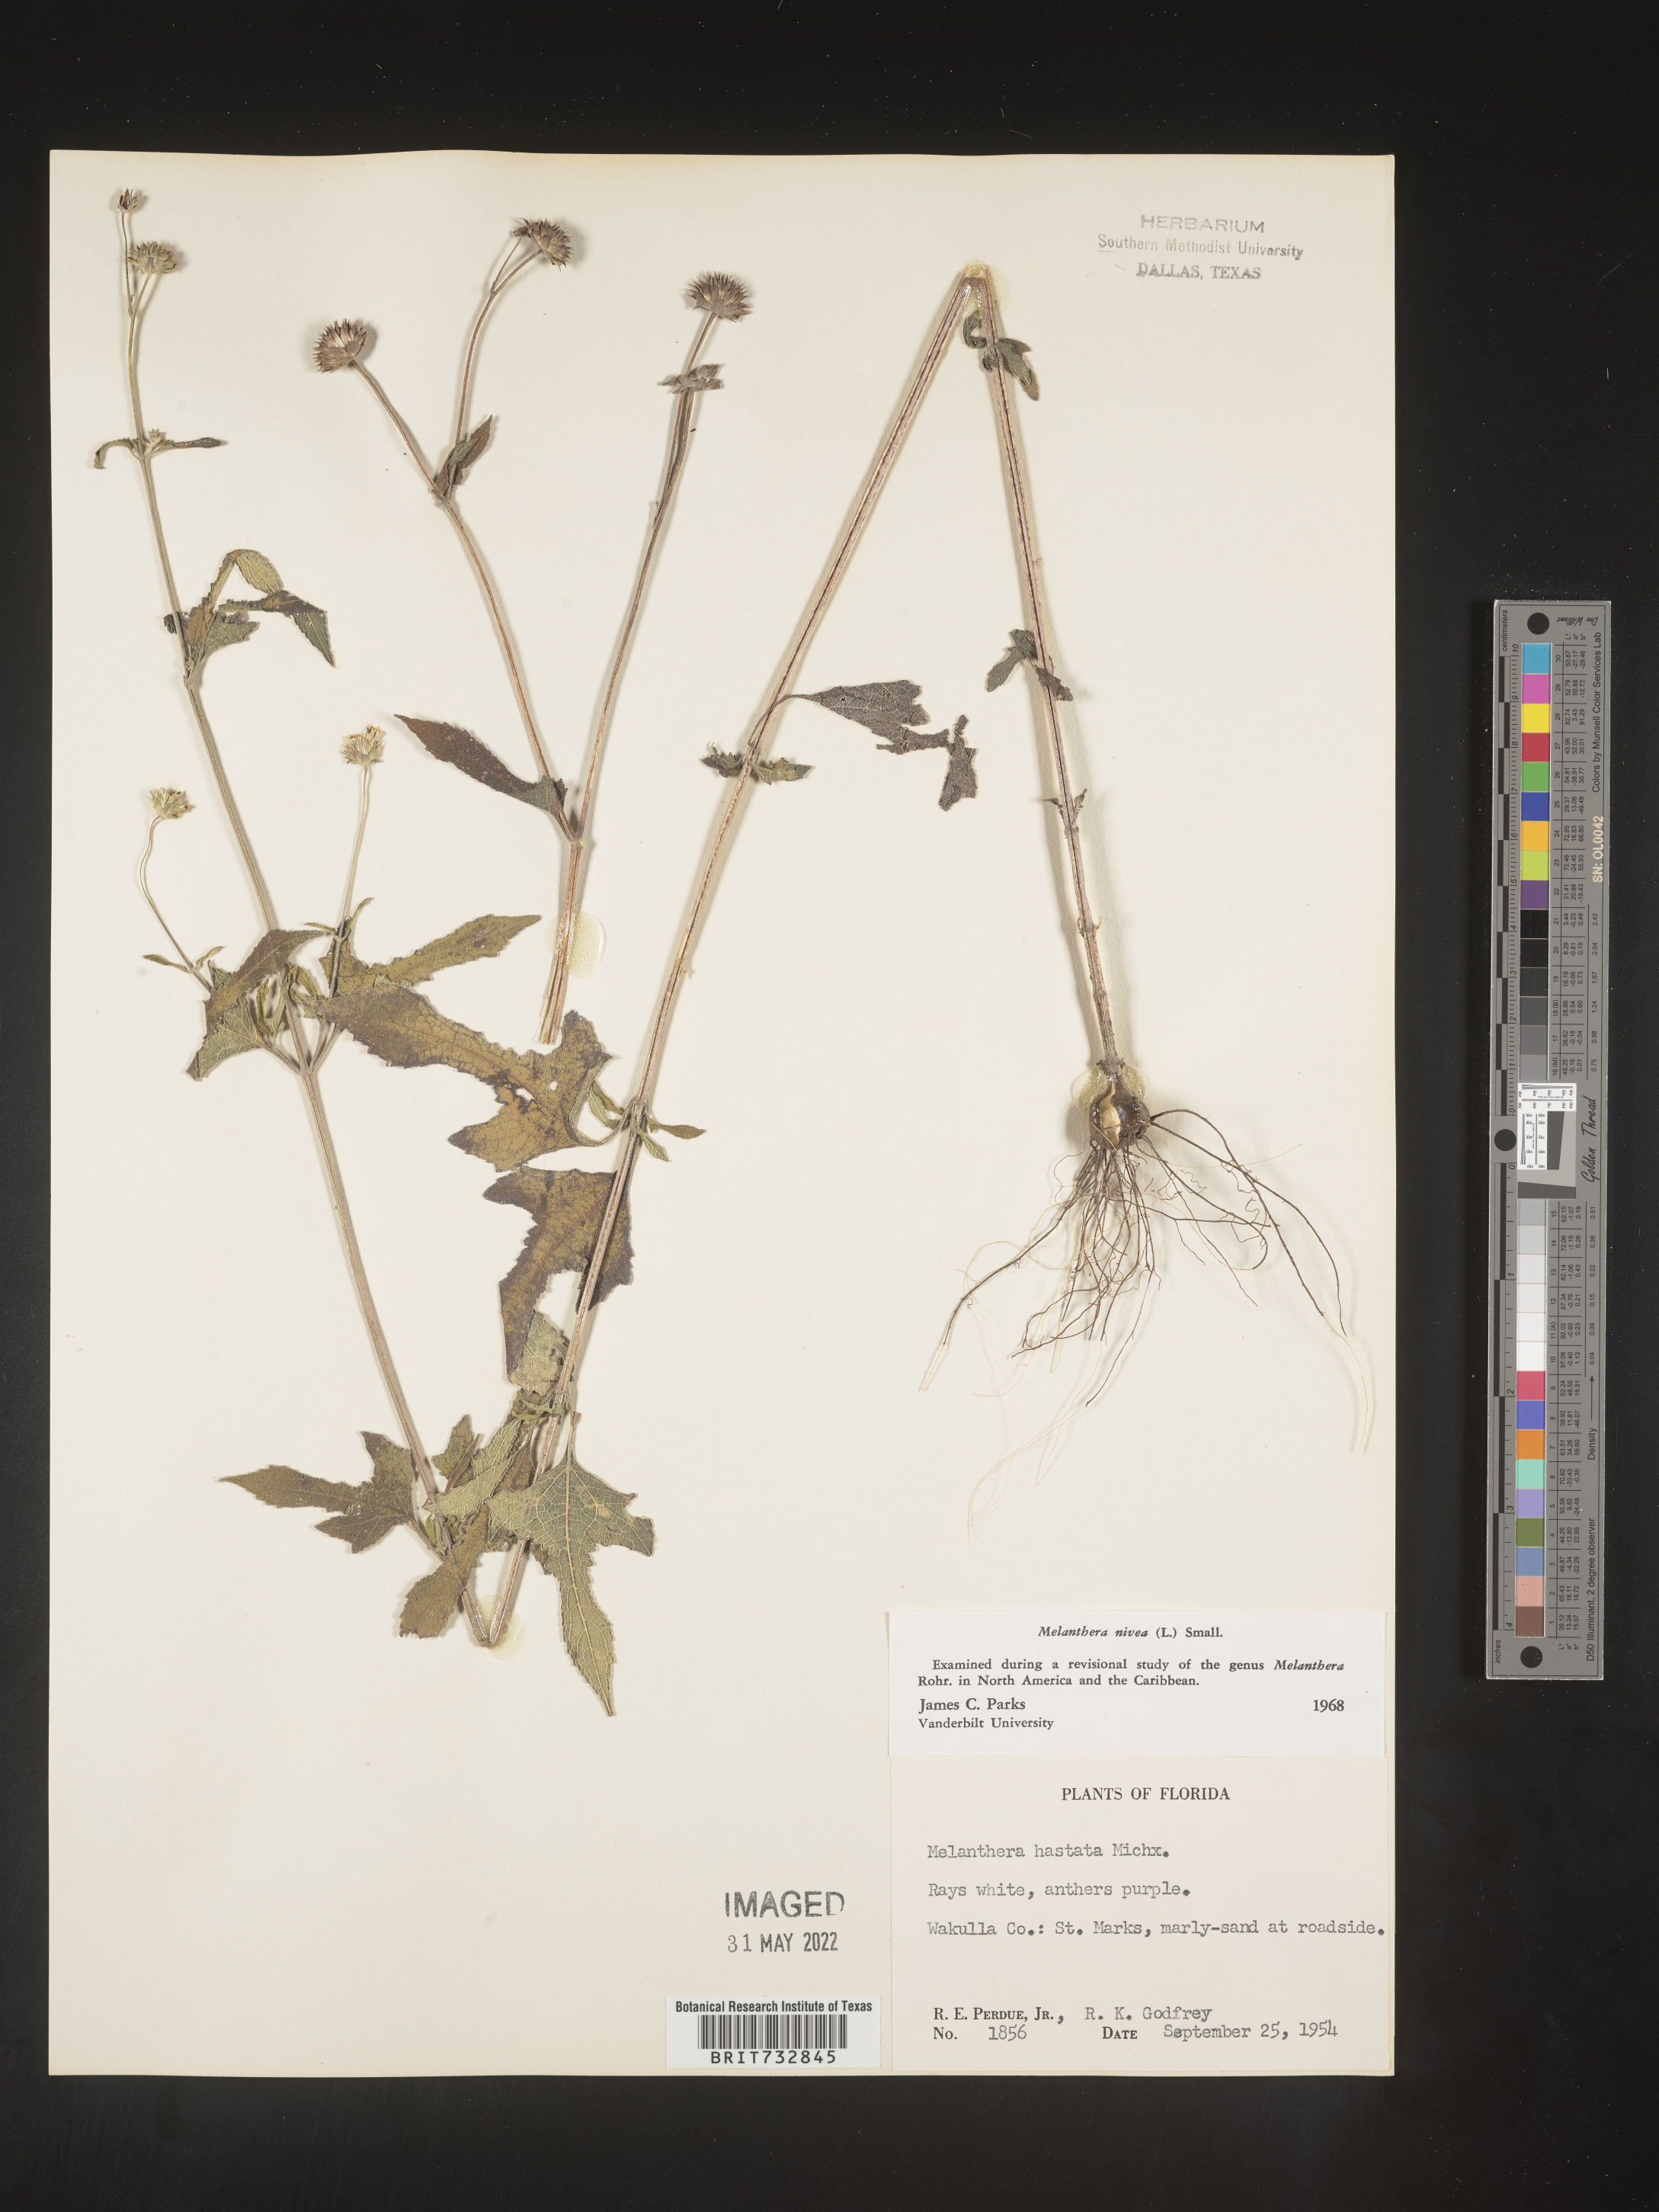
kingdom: Plantae
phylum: Tracheophyta
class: Magnoliopsida
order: Asterales
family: Asteraceae
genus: Melanthera
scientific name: Melanthera nivea
